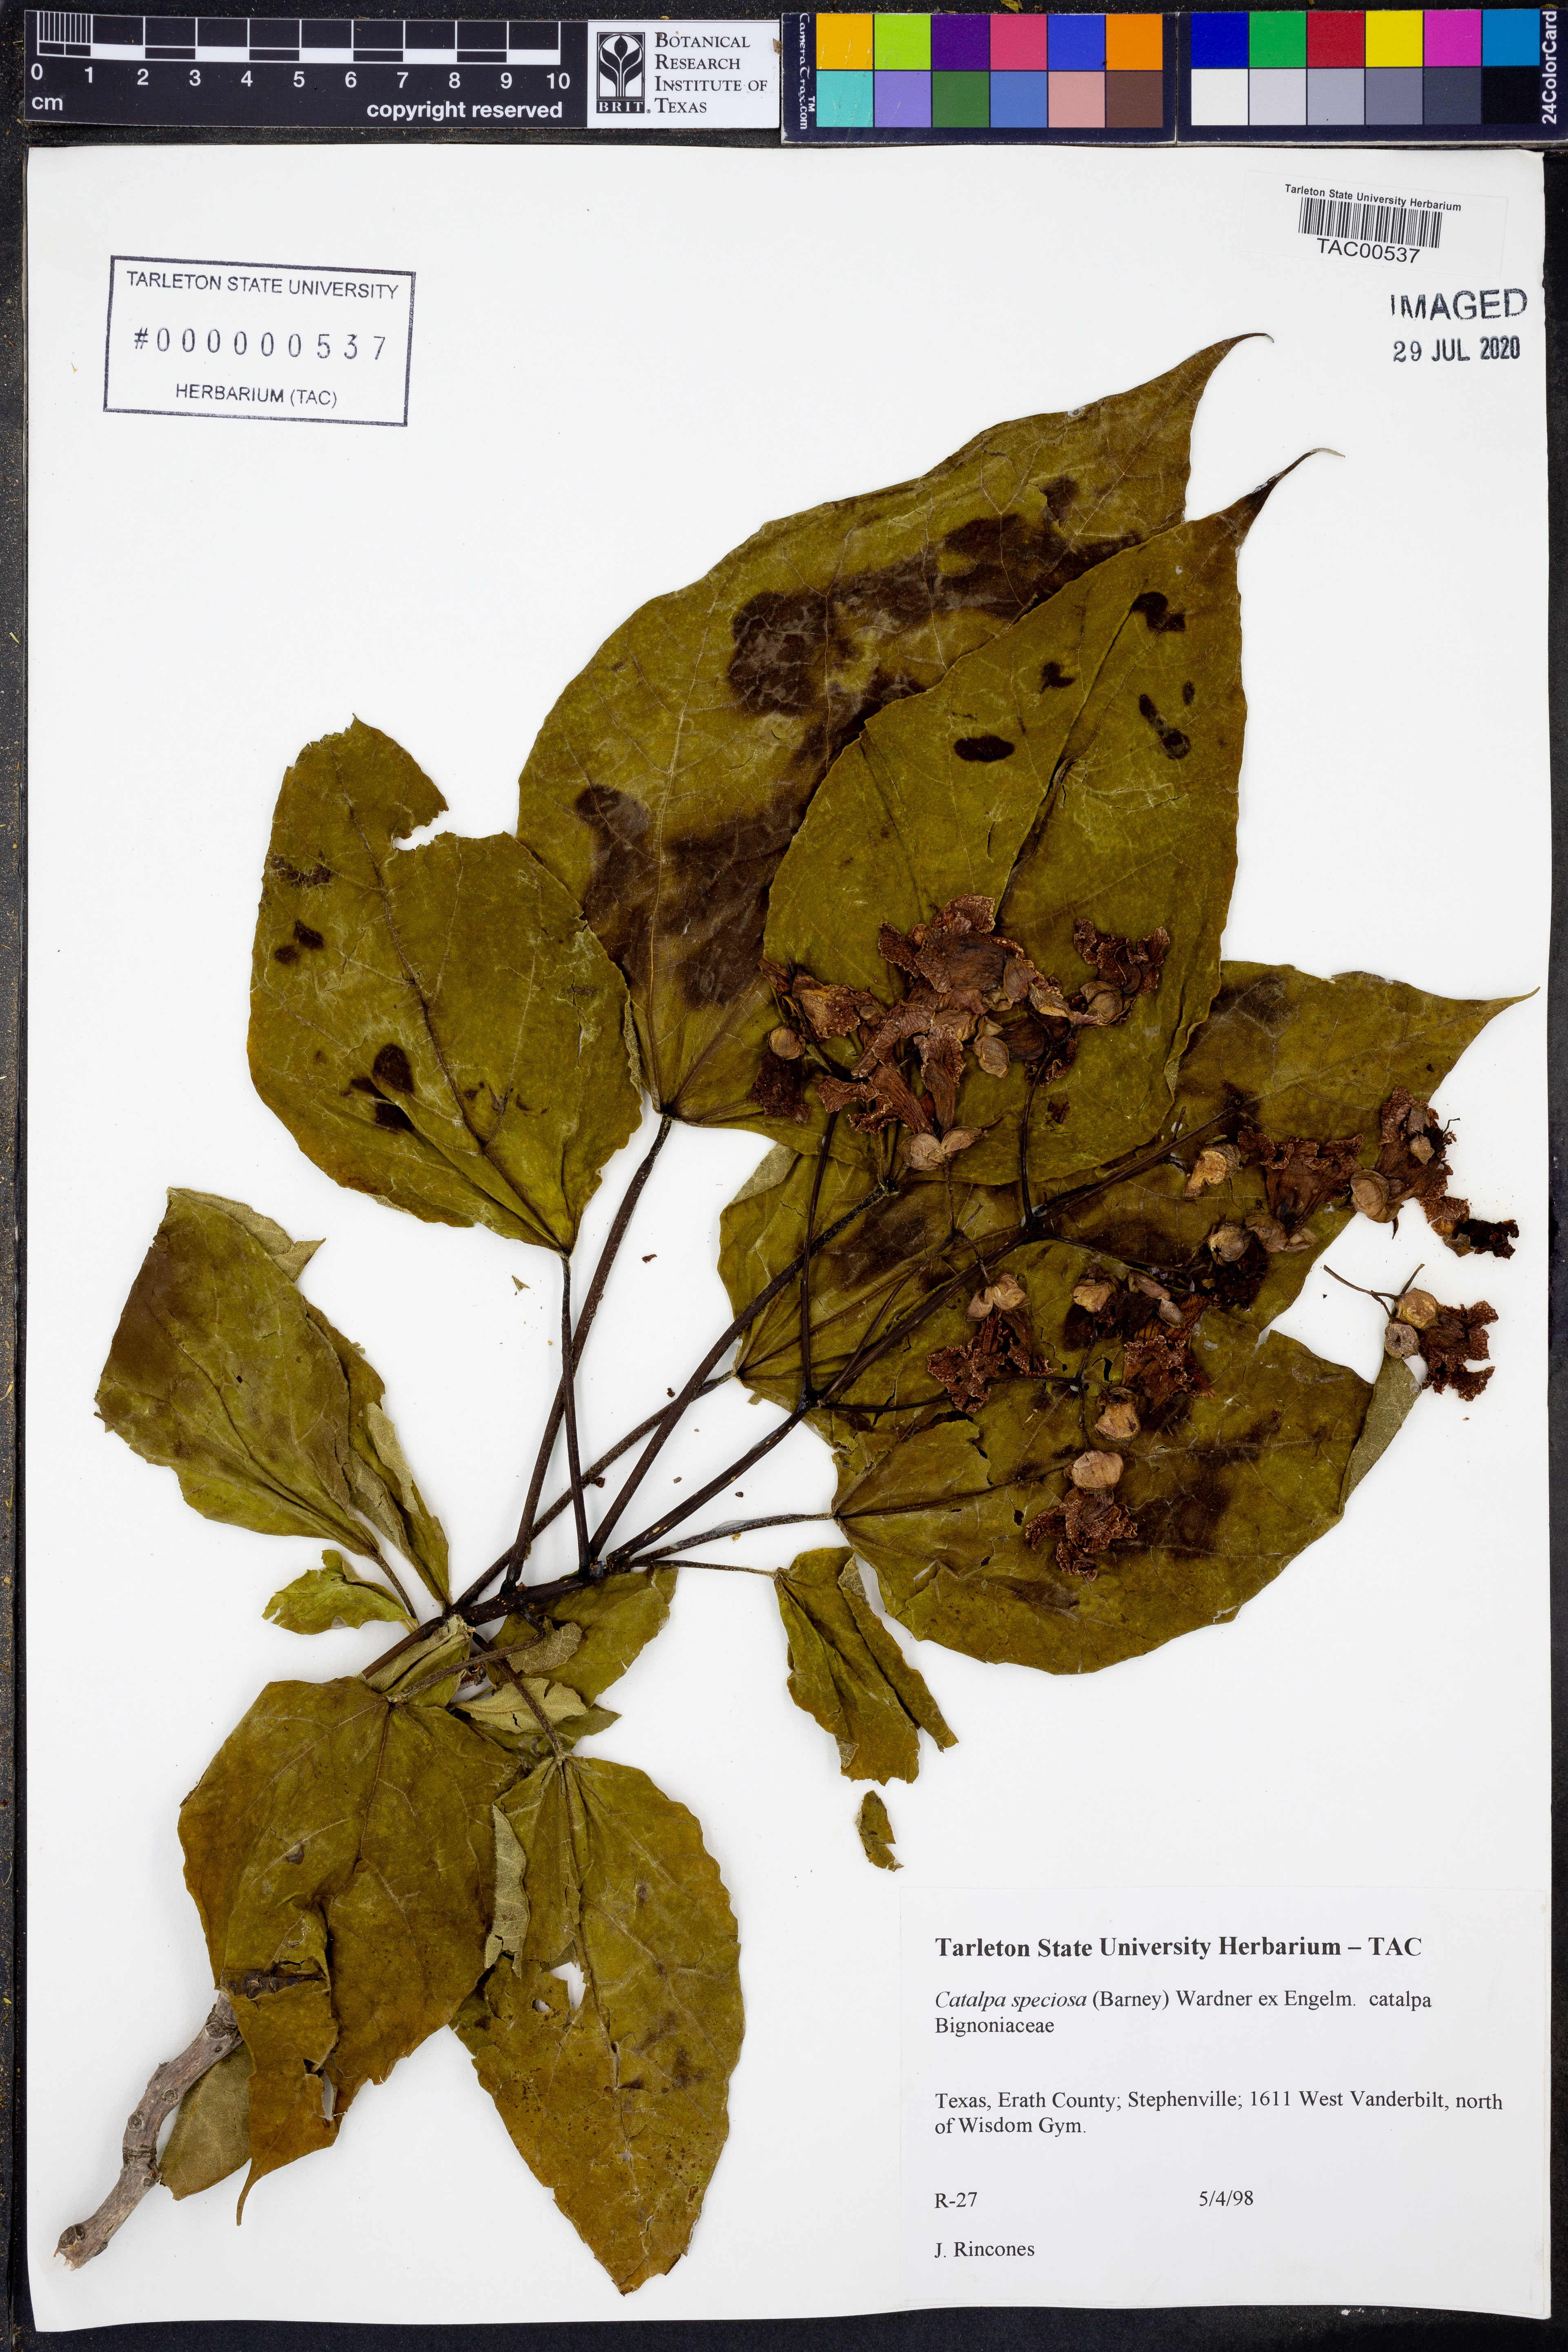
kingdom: Plantae
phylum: Tracheophyta
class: Magnoliopsida
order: Lamiales
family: Bignoniaceae
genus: Catalpa
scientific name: Catalpa speciosa
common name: Northern catalpa
